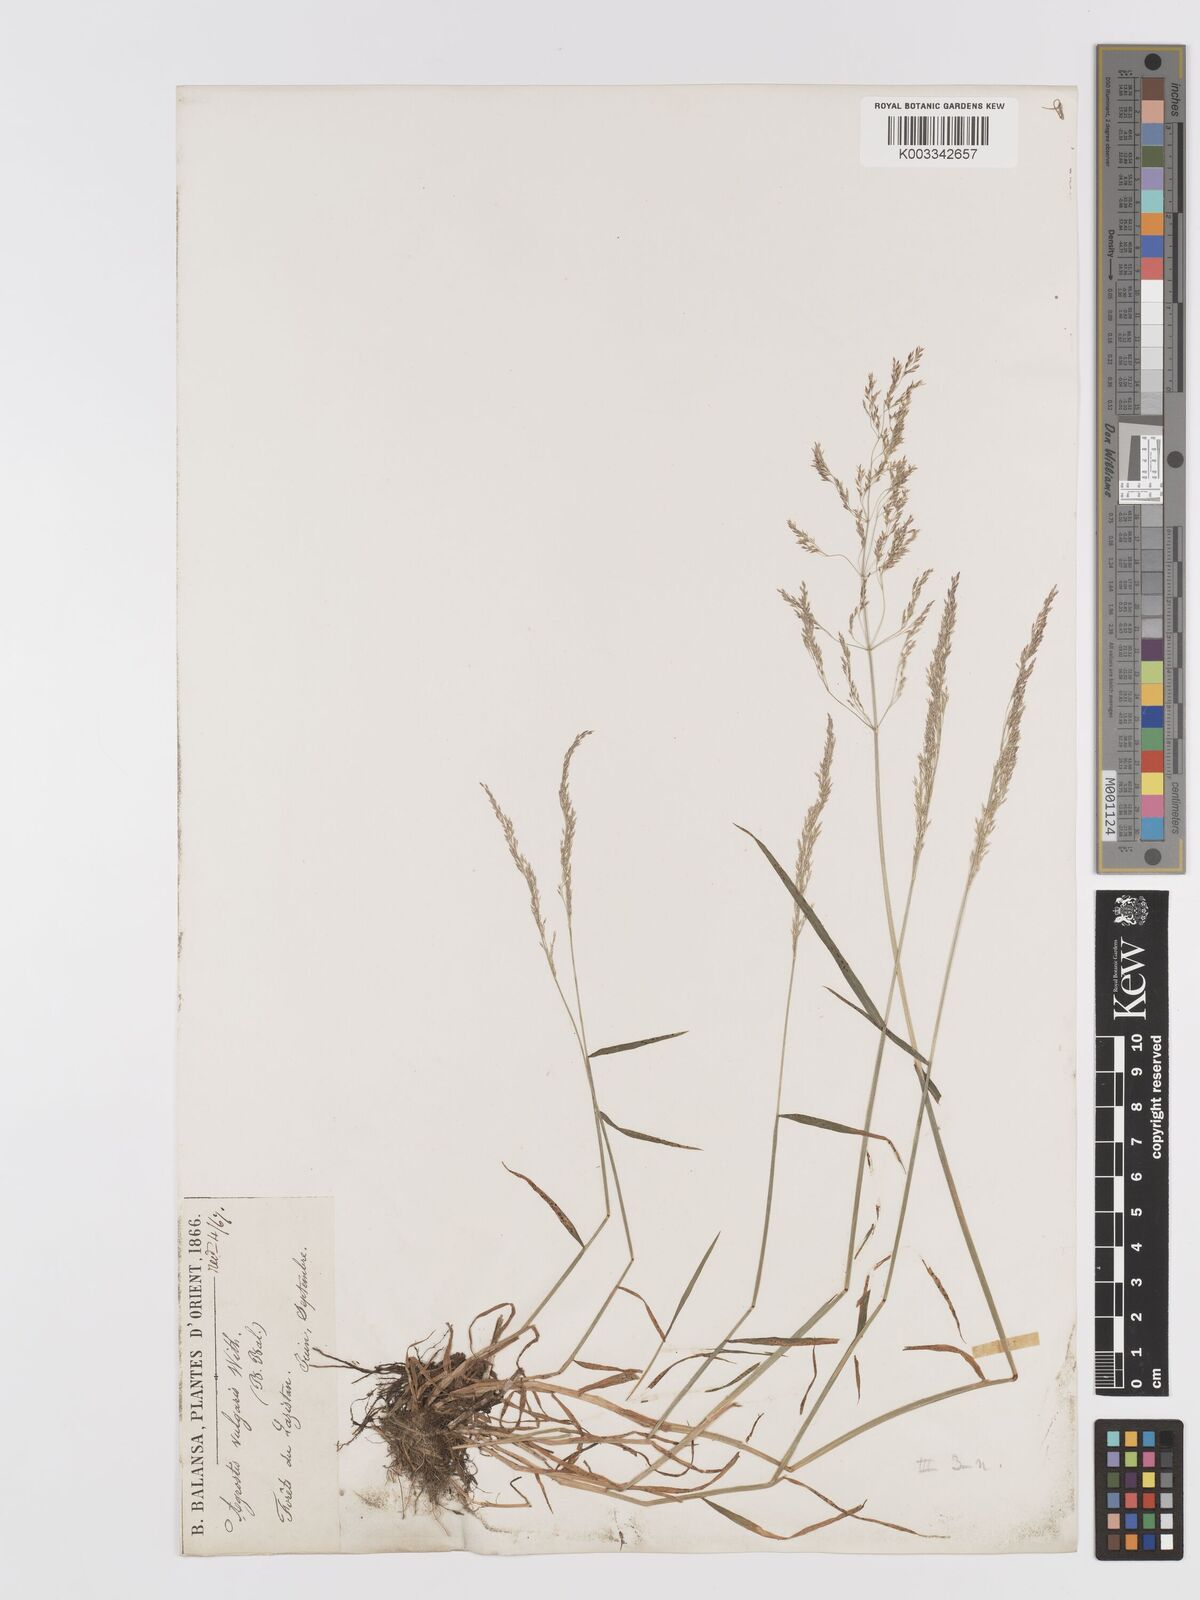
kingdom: Plantae
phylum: Tracheophyta
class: Liliopsida
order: Poales
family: Poaceae
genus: Agrostis
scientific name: Agrostis capillaris
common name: Colonial bentgrass
